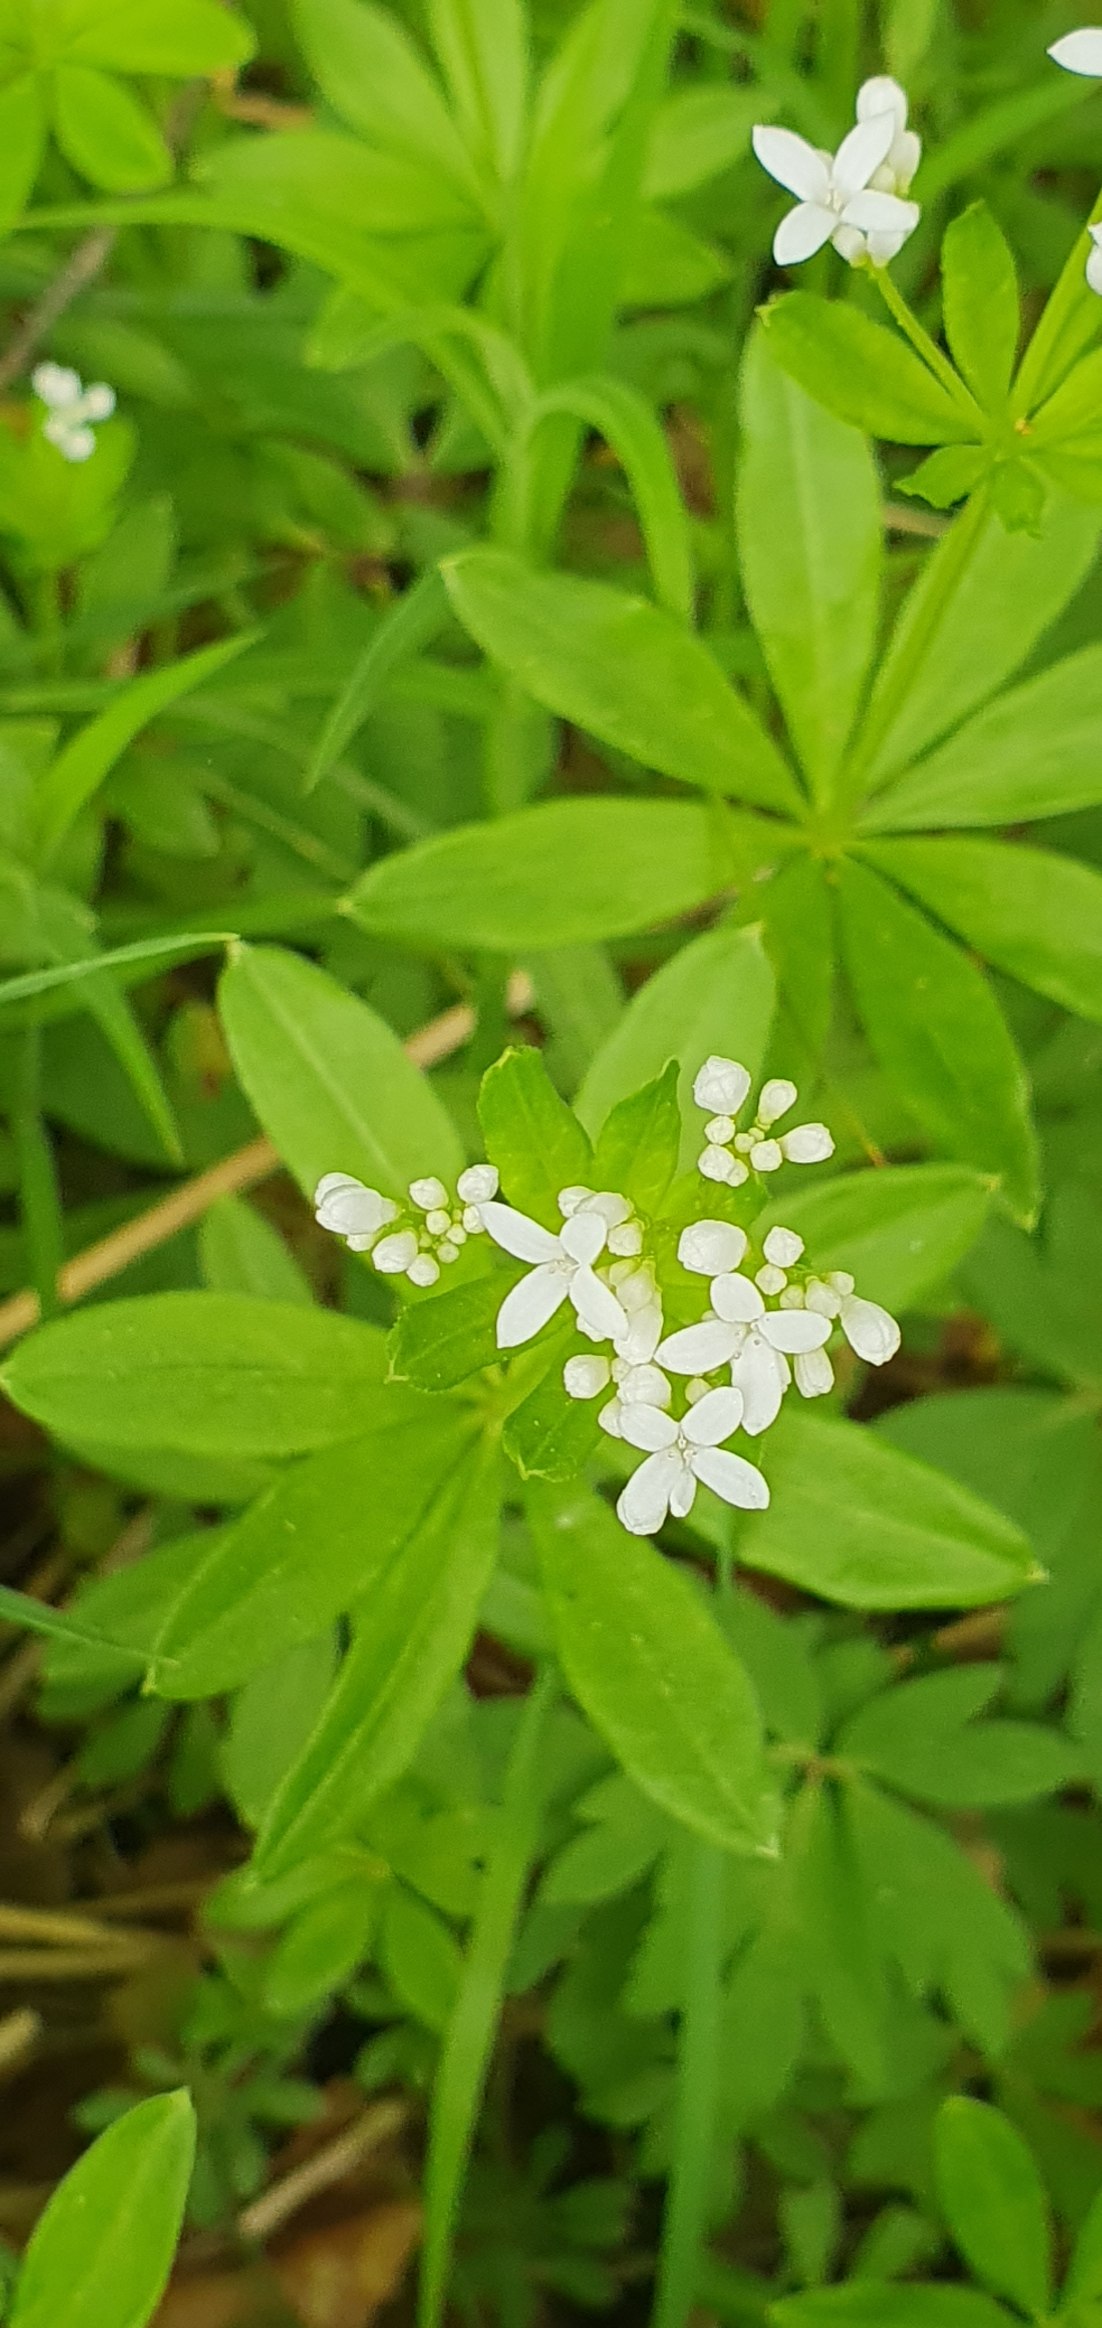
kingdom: Plantae
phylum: Tracheophyta
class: Magnoliopsida
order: Gentianales
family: Rubiaceae
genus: Galium
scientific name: Galium odoratum
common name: Skovmærke
